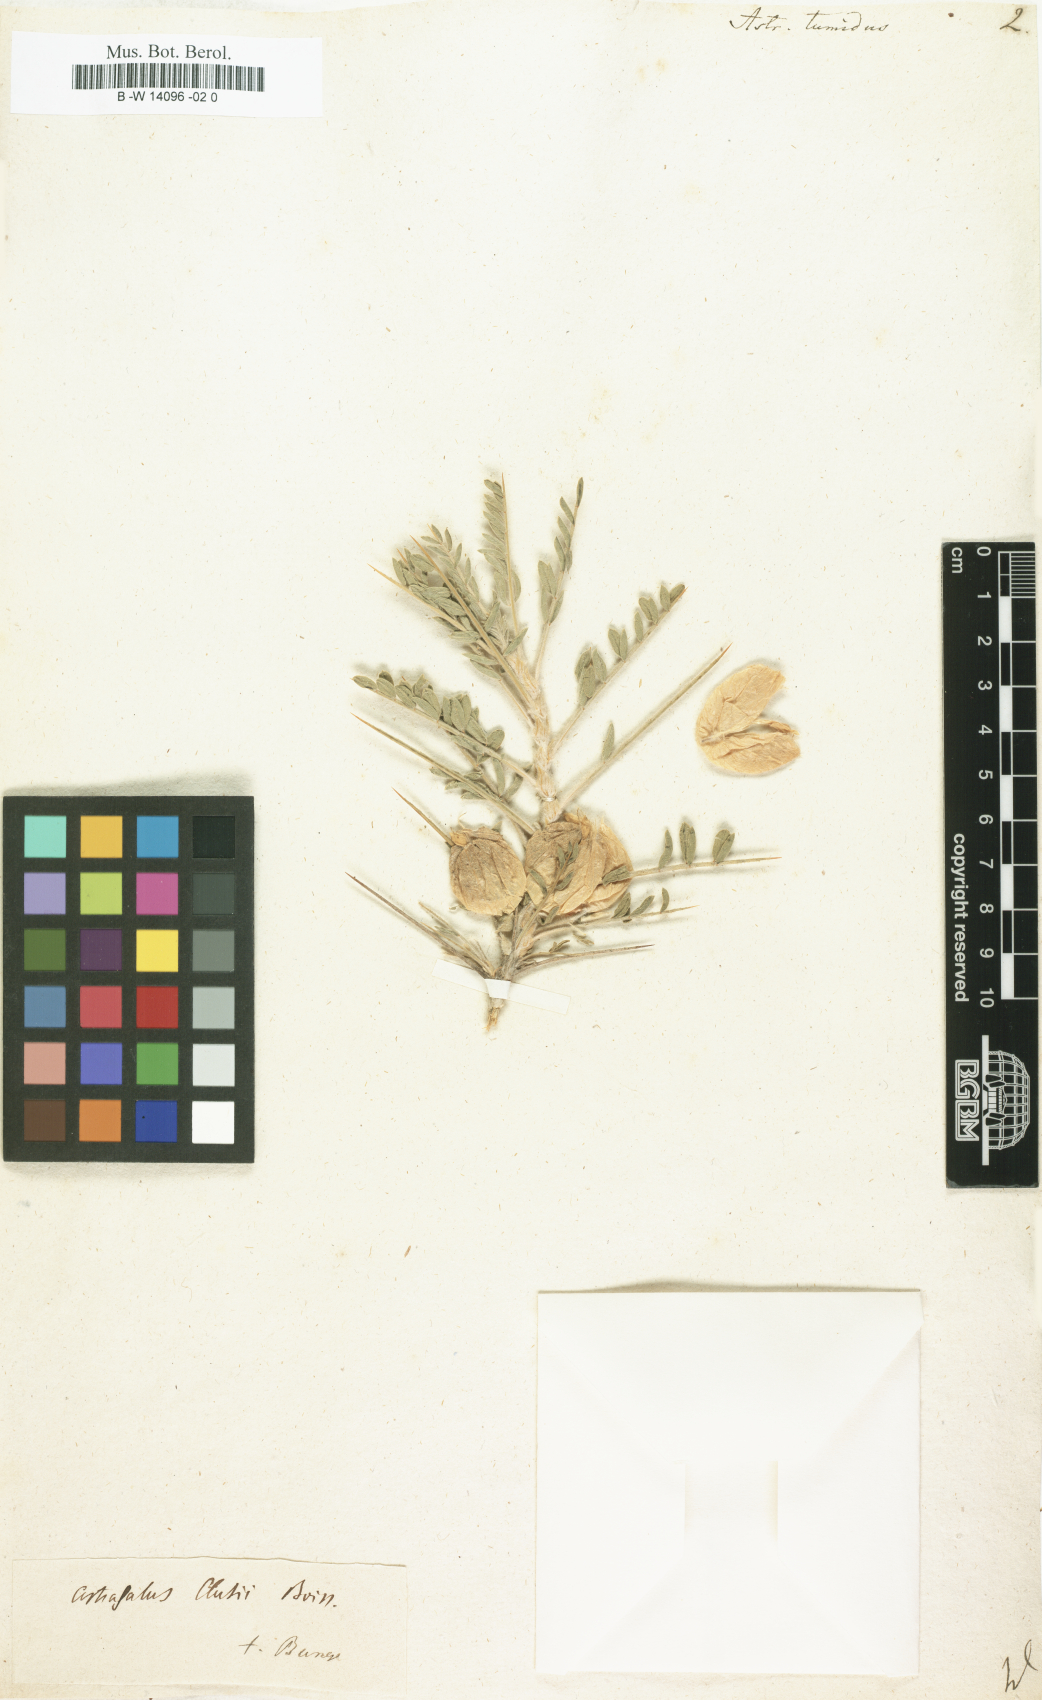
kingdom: Plantae
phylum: Tracheophyta
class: Magnoliopsida
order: Fabales
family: Fabaceae
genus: Astragalus
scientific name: Astragalus
